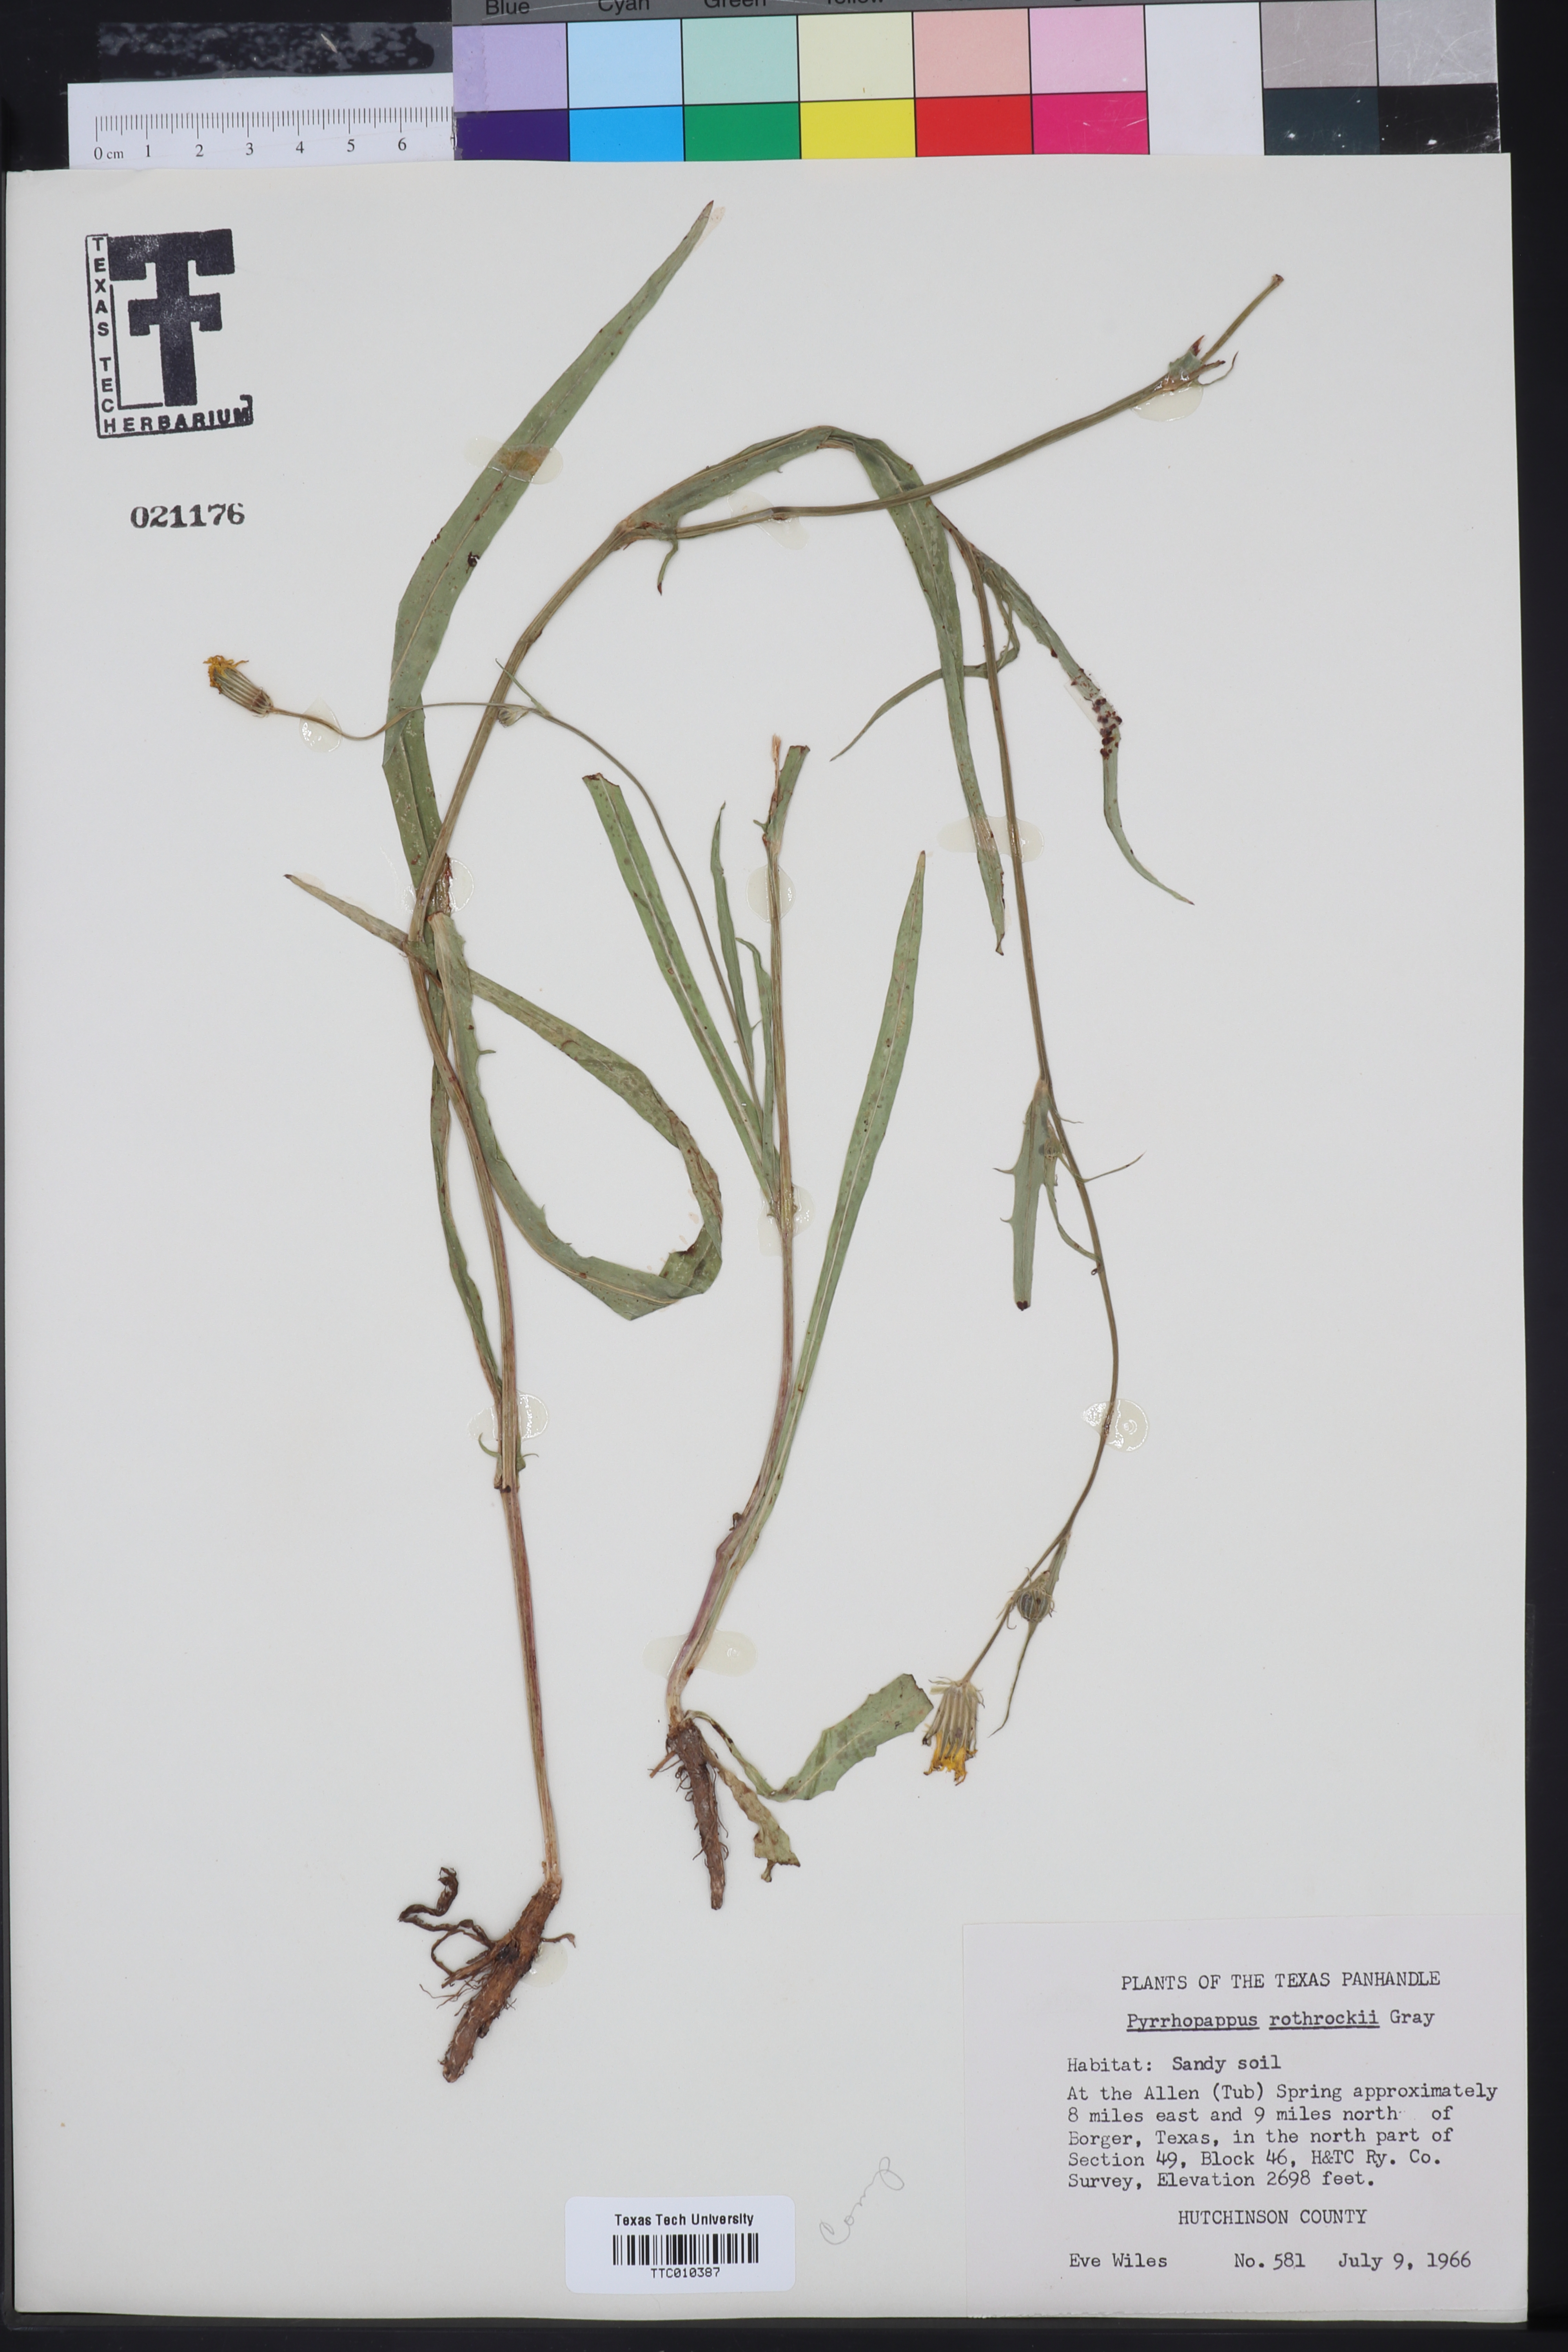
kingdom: Plantae
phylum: Tracheophyta
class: Magnoliopsida
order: Asterales
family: Asteraceae
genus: Pyrrhopappus
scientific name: Pyrrhopappus rothrockii
